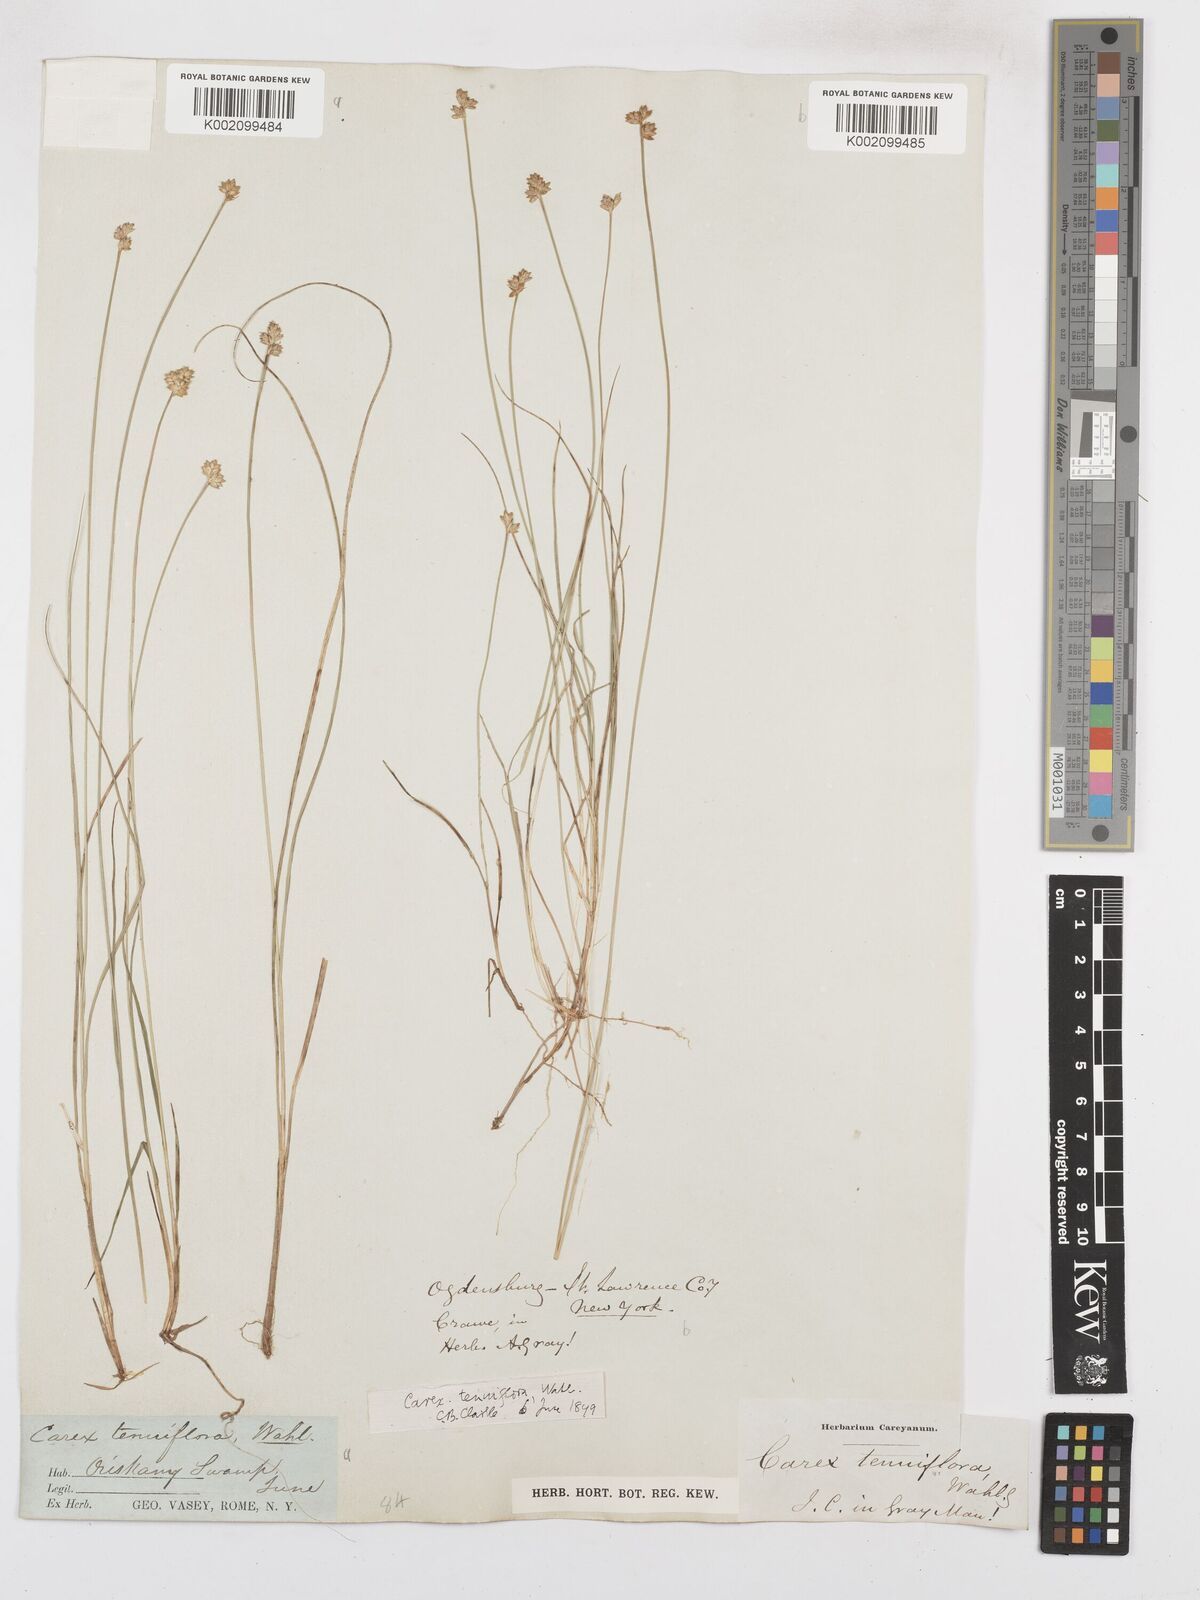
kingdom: Plantae
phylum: Tracheophyta
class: Liliopsida
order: Poales
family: Cyperaceae
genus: Carex
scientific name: Carex tenuiflora
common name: Sparse-flowered sedge
